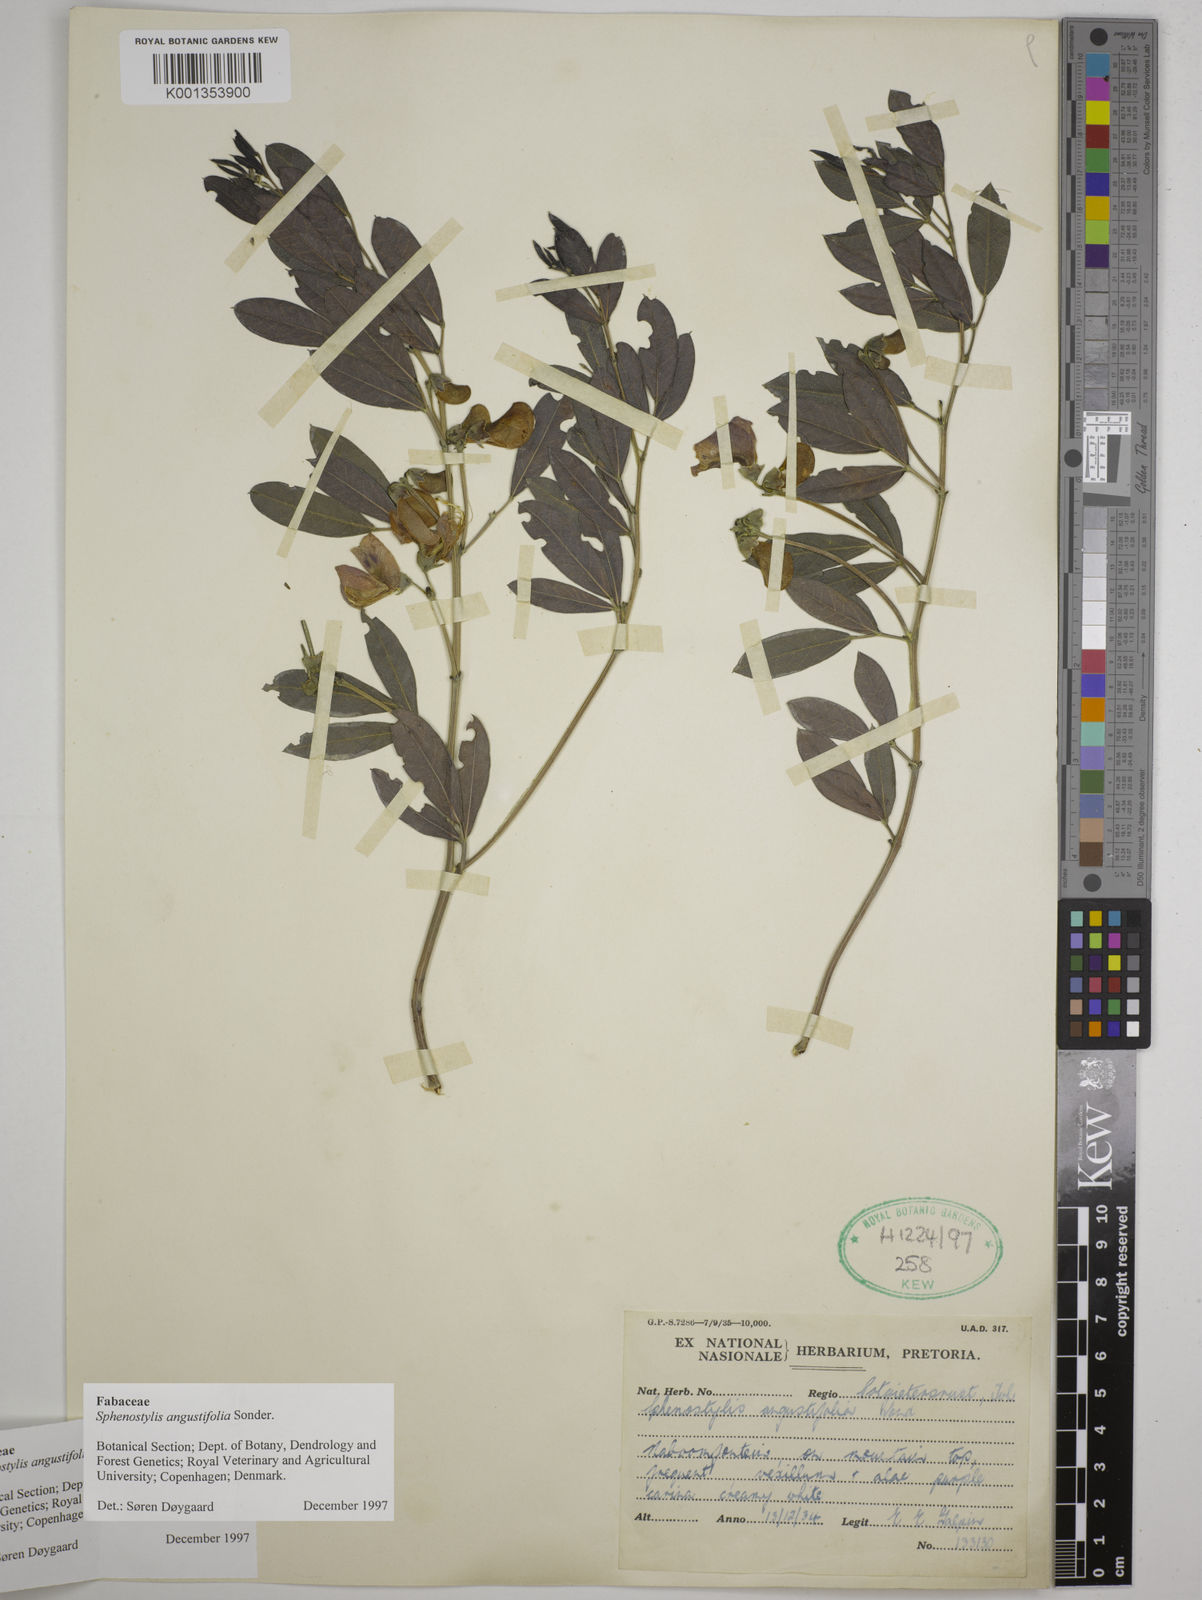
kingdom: Plantae
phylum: Tracheophyta
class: Magnoliopsida
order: Fabales
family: Fabaceae
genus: Sphenostylis
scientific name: Sphenostylis angustifolia
